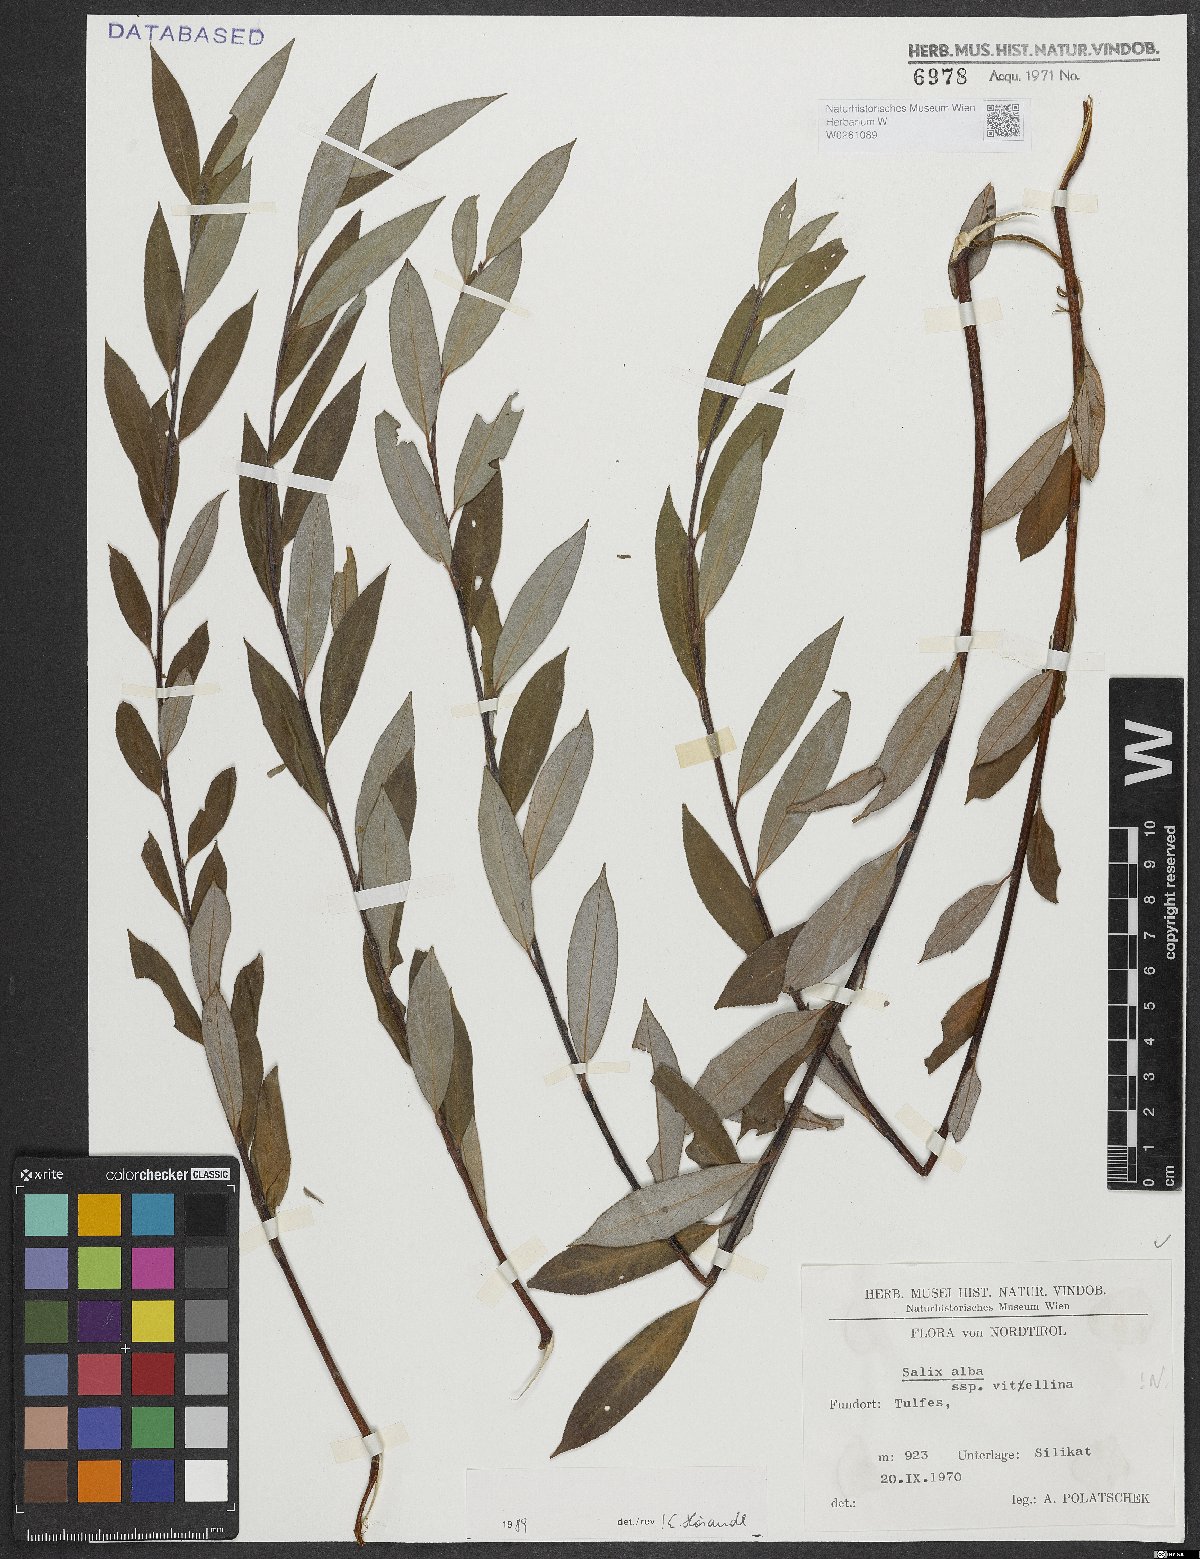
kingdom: Plantae
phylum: Tracheophyta
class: Magnoliopsida
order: Malpighiales
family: Salicaceae
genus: Salix
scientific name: Salix alba
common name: White willow
